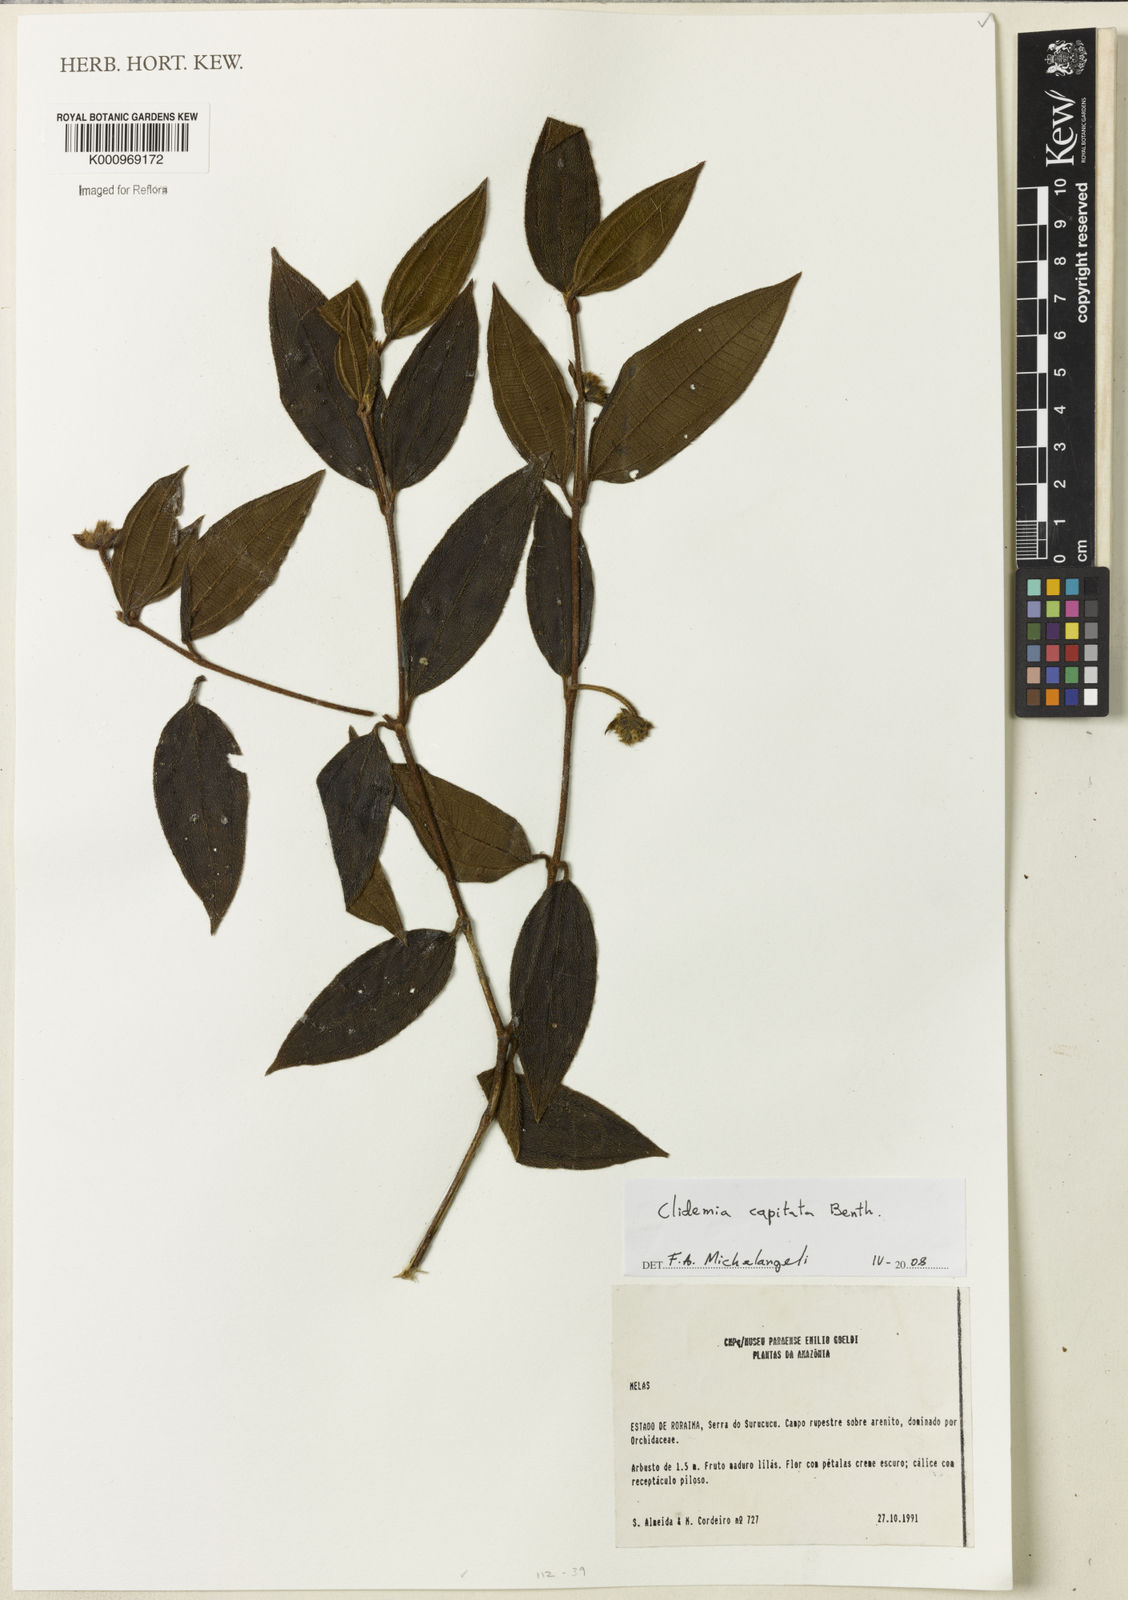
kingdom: Plantae
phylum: Tracheophyta
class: Magnoliopsida
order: Myrtales
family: Melastomataceae
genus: Miconia
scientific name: Miconia benthamii
